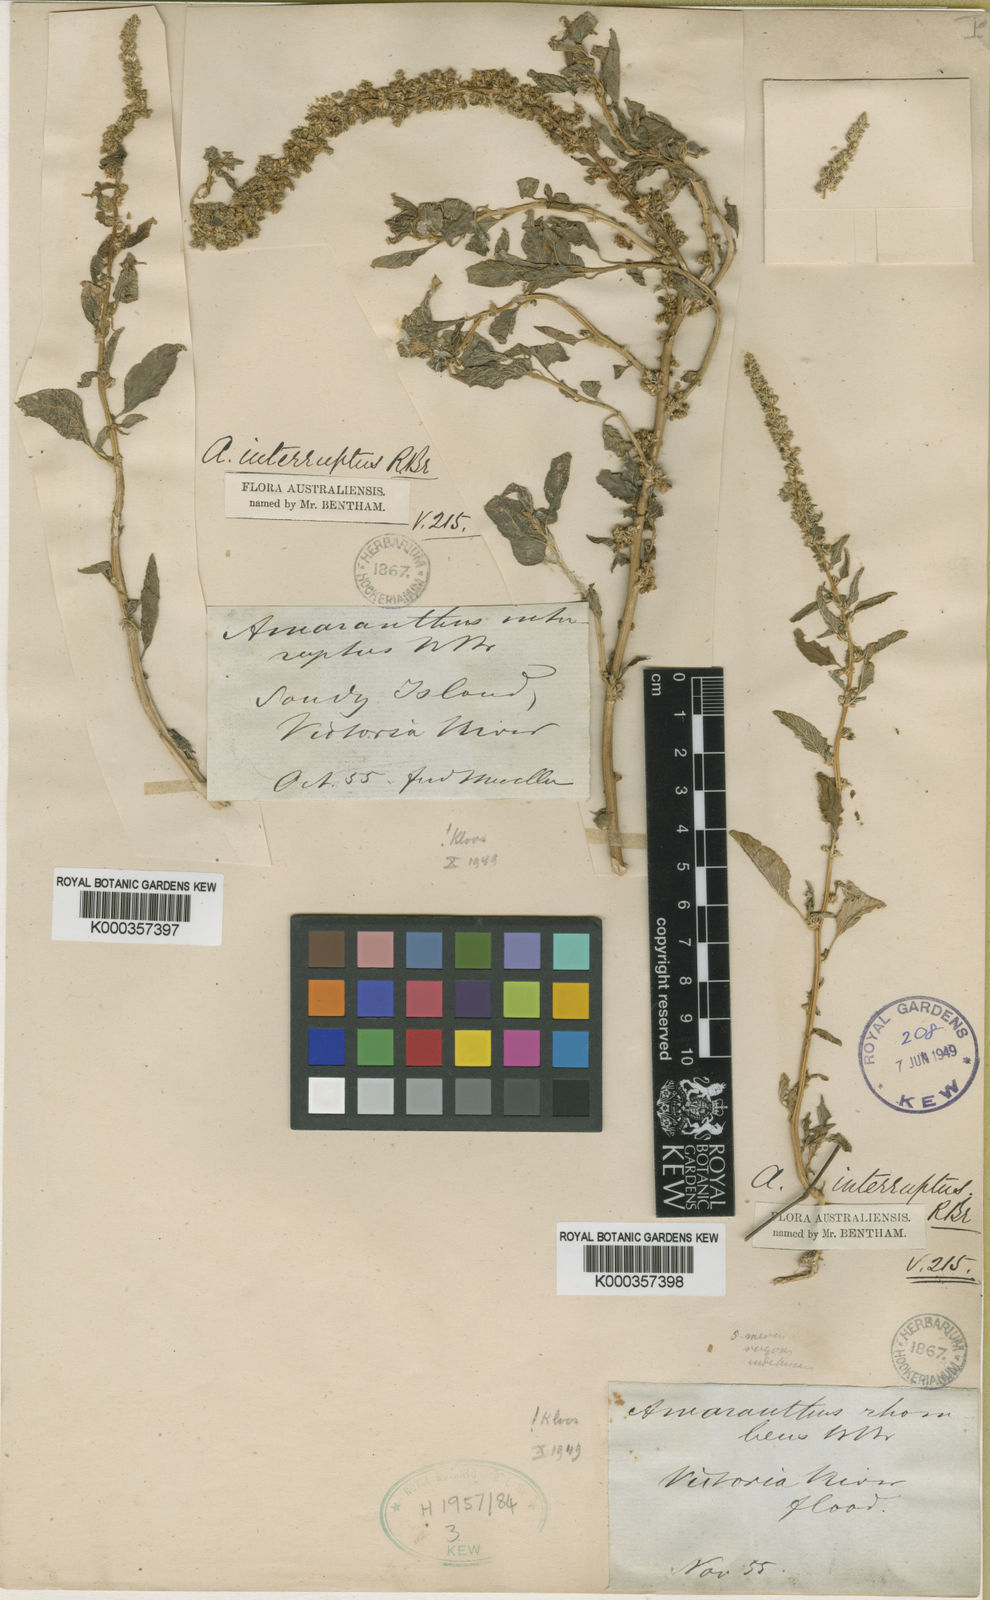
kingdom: Plantae
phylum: Tracheophyta
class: Magnoliopsida
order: Caryophyllales
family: Amaranthaceae
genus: Amaranthus
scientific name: Amaranthus interruptus
